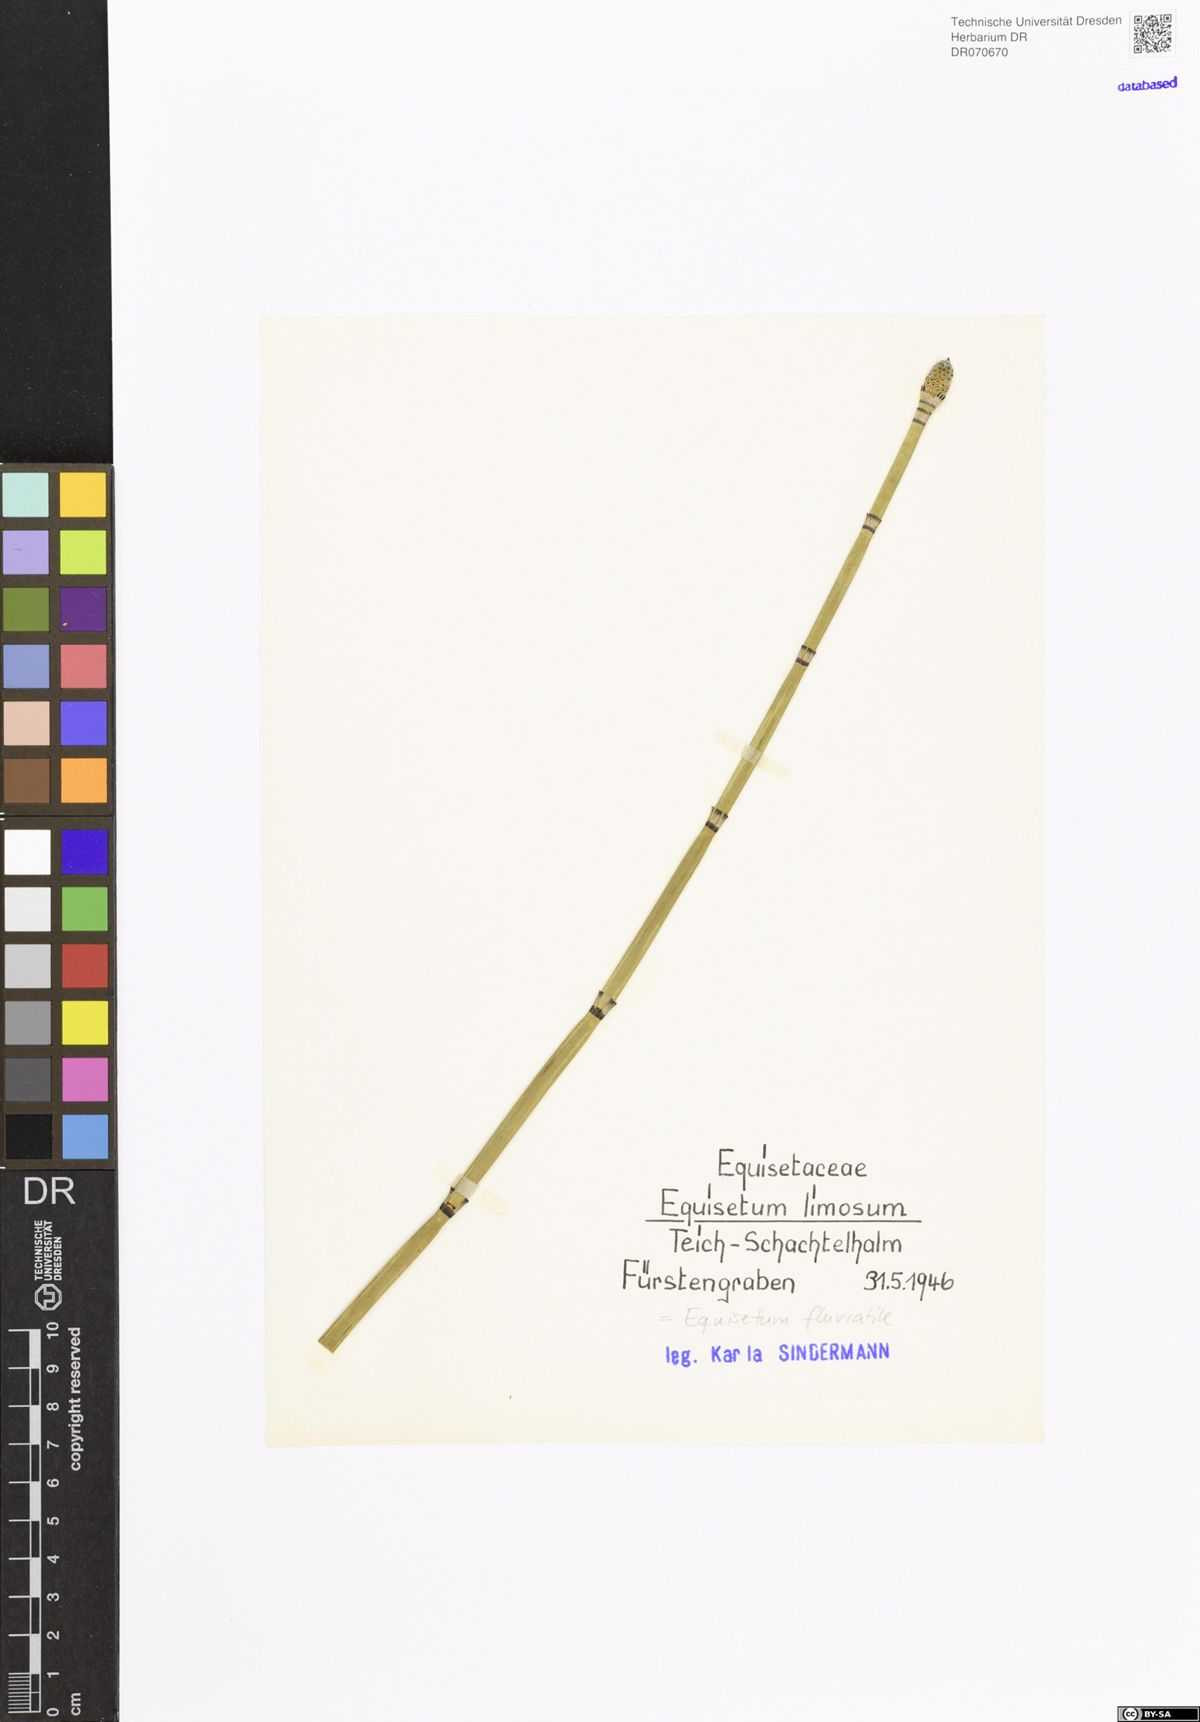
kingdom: Plantae
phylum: Tracheophyta
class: Polypodiopsida
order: Equisetales
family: Equisetaceae
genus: Equisetum
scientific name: Equisetum fluviatile
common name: Water horsetail
